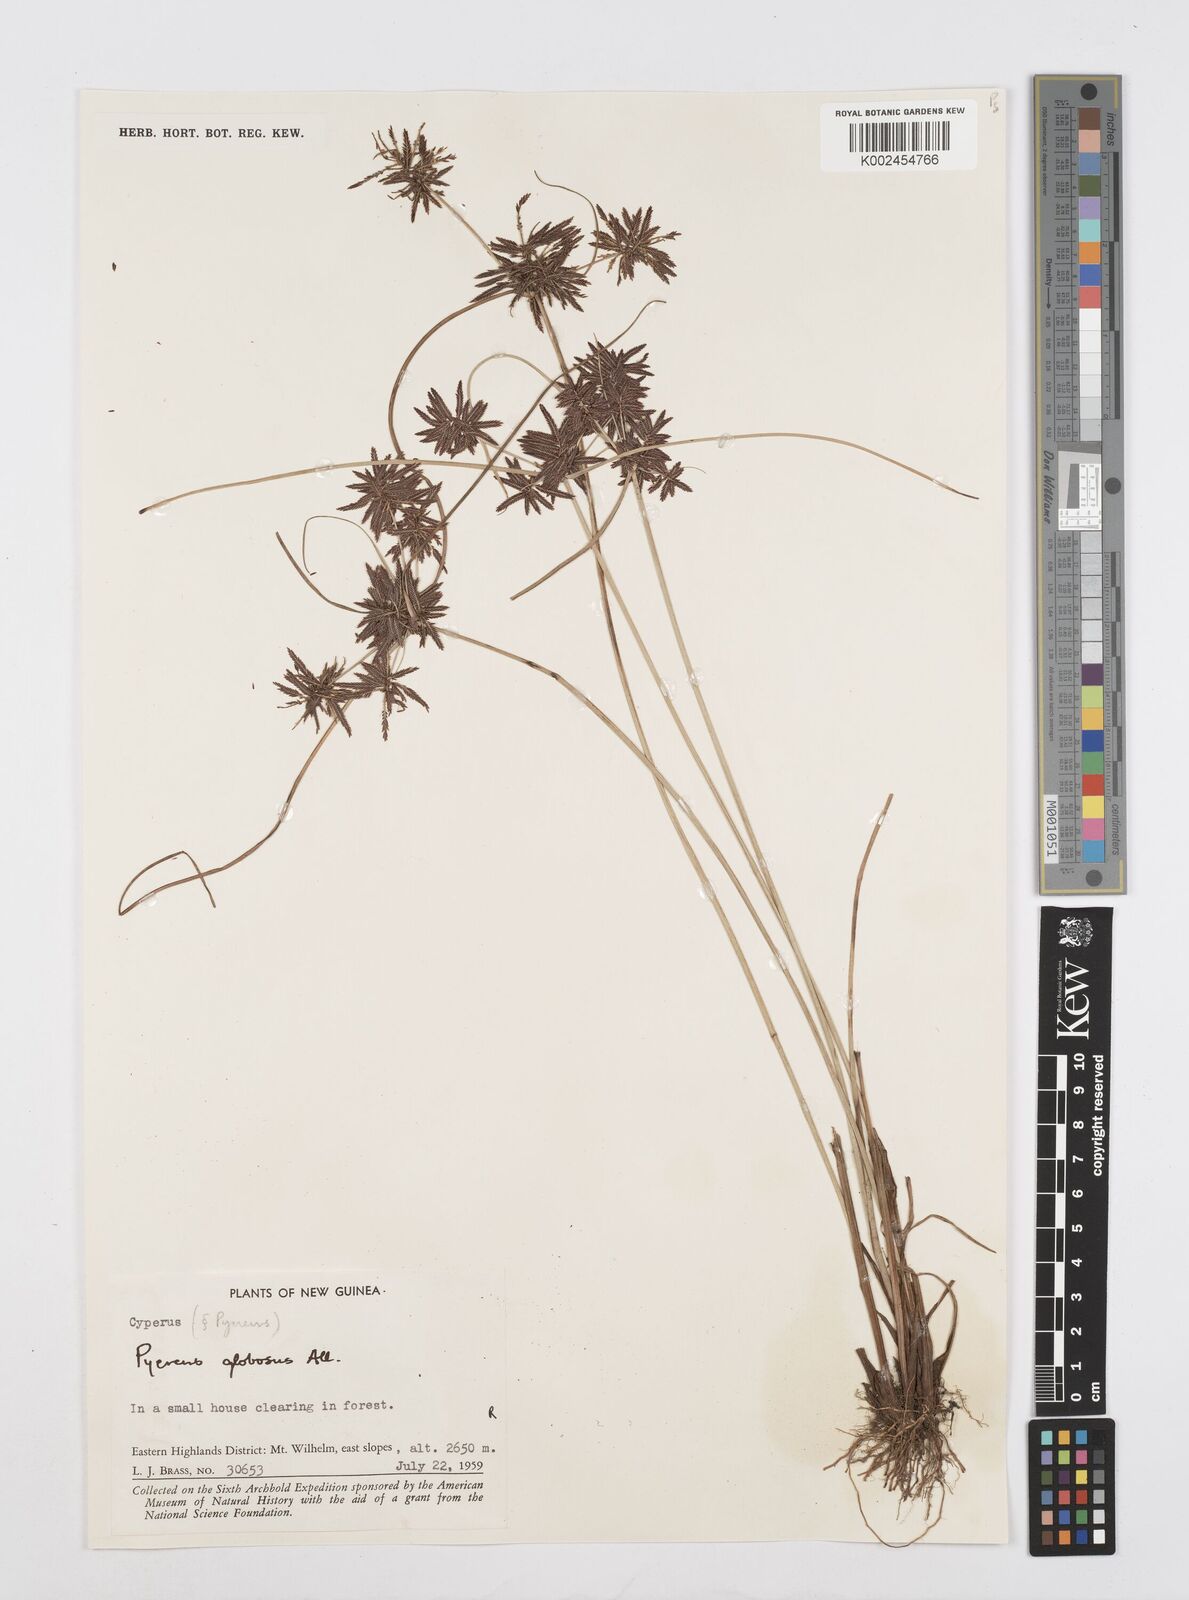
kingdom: Plantae
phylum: Tracheophyta
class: Liliopsida
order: Poales
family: Cyperaceae
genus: Cyperus
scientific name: Cyperus flavidus
